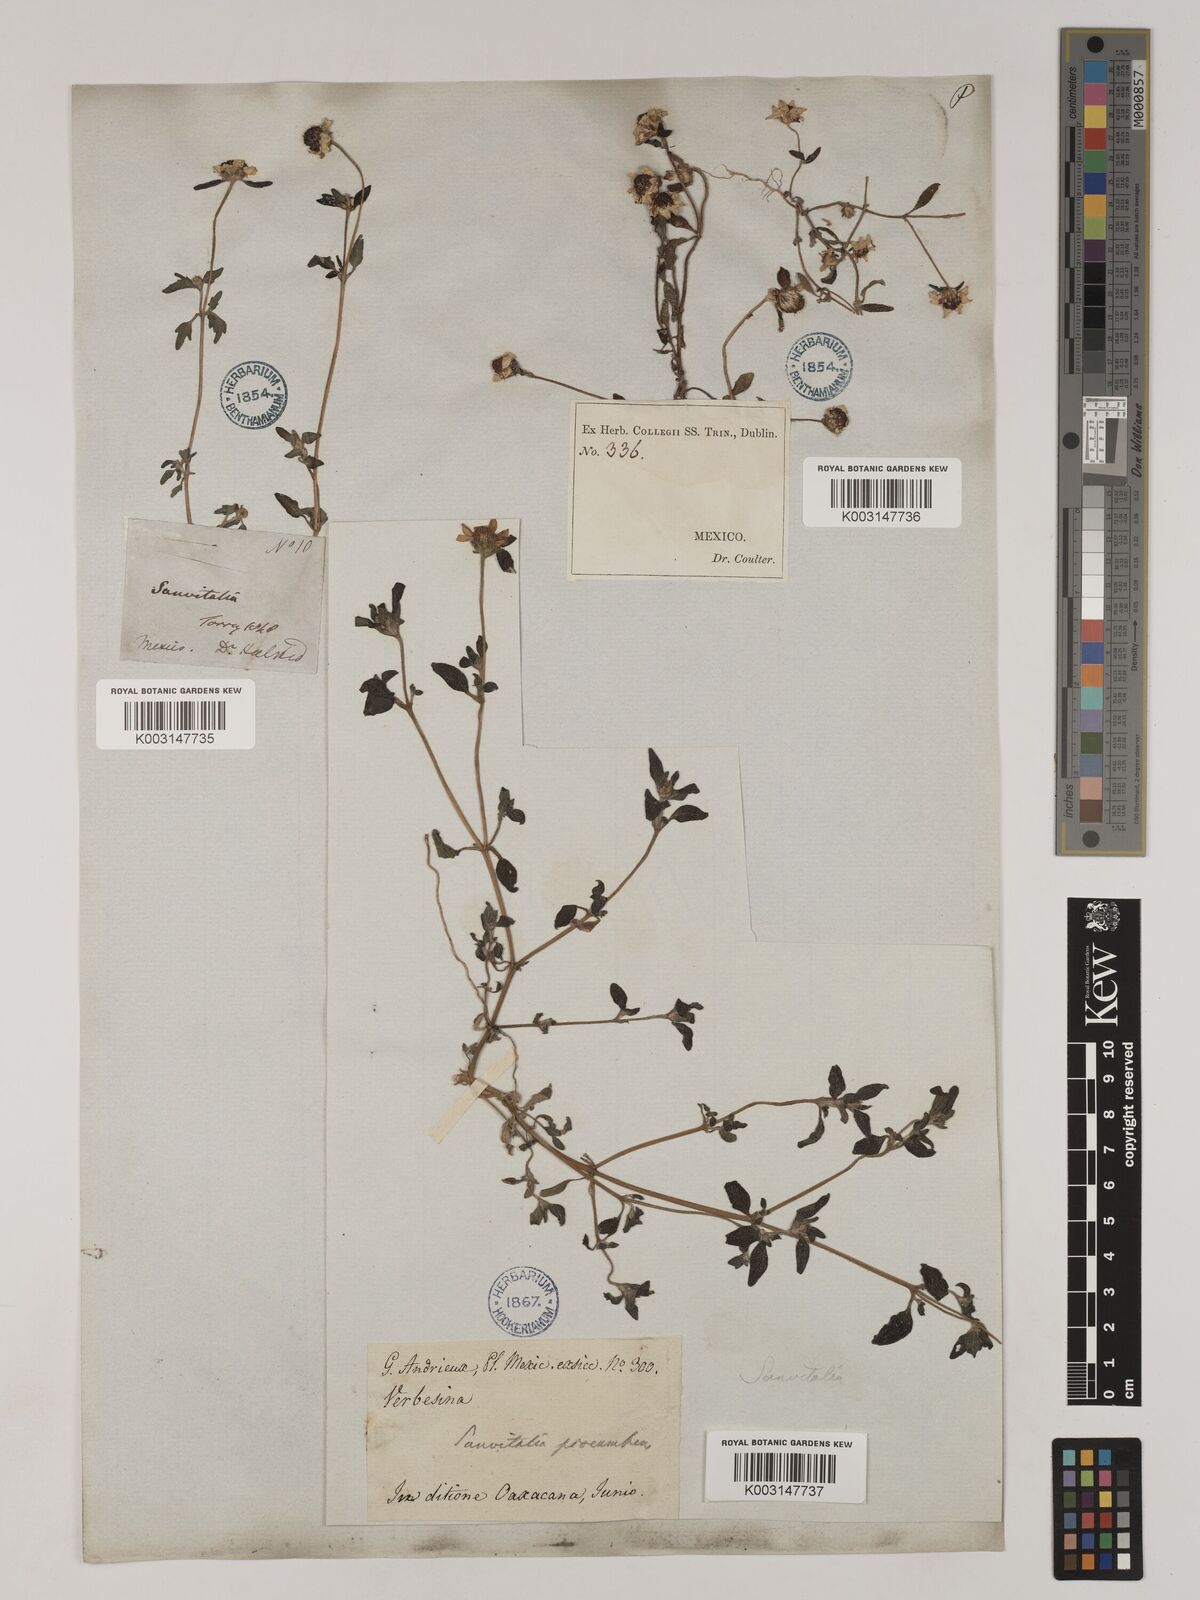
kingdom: Plantae
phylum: Tracheophyta
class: Magnoliopsida
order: Asterales
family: Asteraceae
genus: Sanvitalia
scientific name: Sanvitalia procumbens
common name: Mexican creeping zinnia
